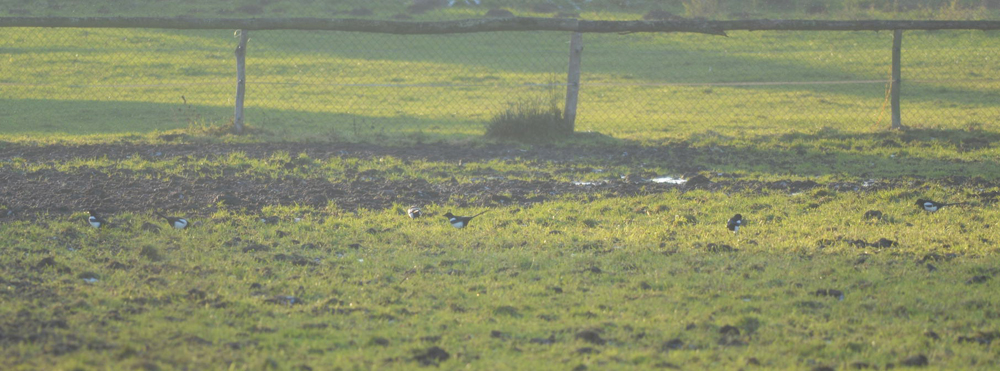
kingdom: Animalia
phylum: Chordata
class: Aves
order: Passeriformes
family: Corvidae
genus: Pica
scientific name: Pica pica
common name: Eurasian magpie
